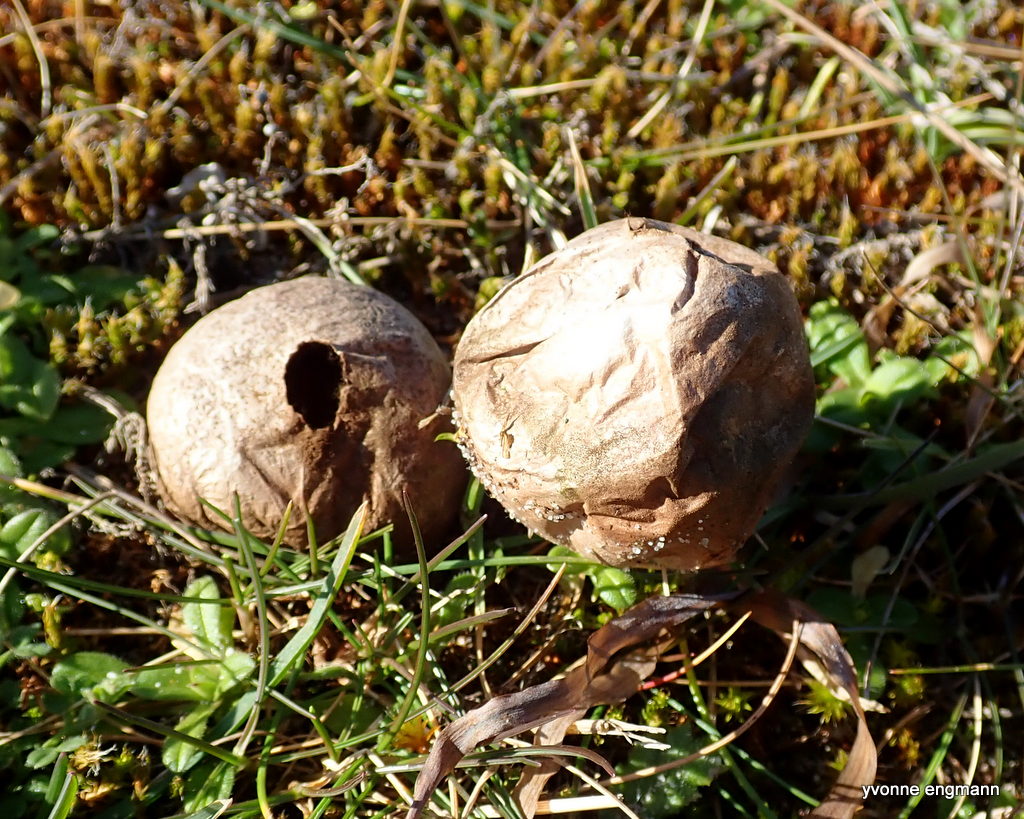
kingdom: Fungi
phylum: Basidiomycota
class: Agaricomycetes
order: Agaricales
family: Lycoperdaceae
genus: Lycoperdon
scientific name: Lycoperdon lividum
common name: mark-støvbold
